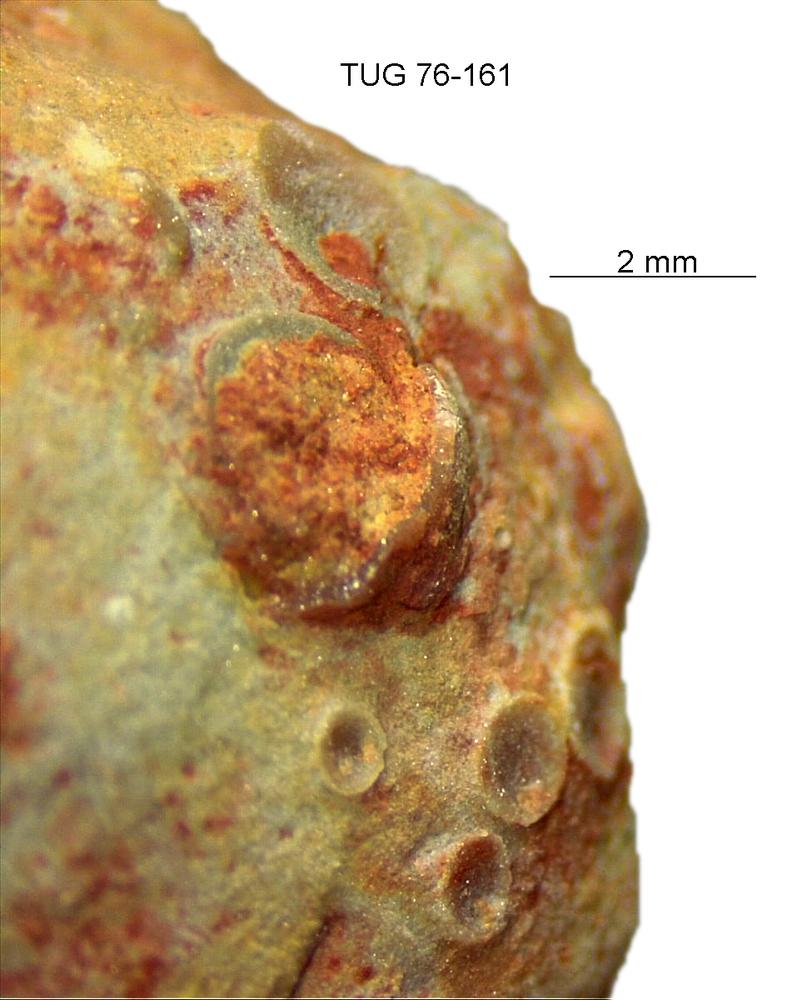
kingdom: Animalia
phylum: Brachiopoda
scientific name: Brachiopoda
